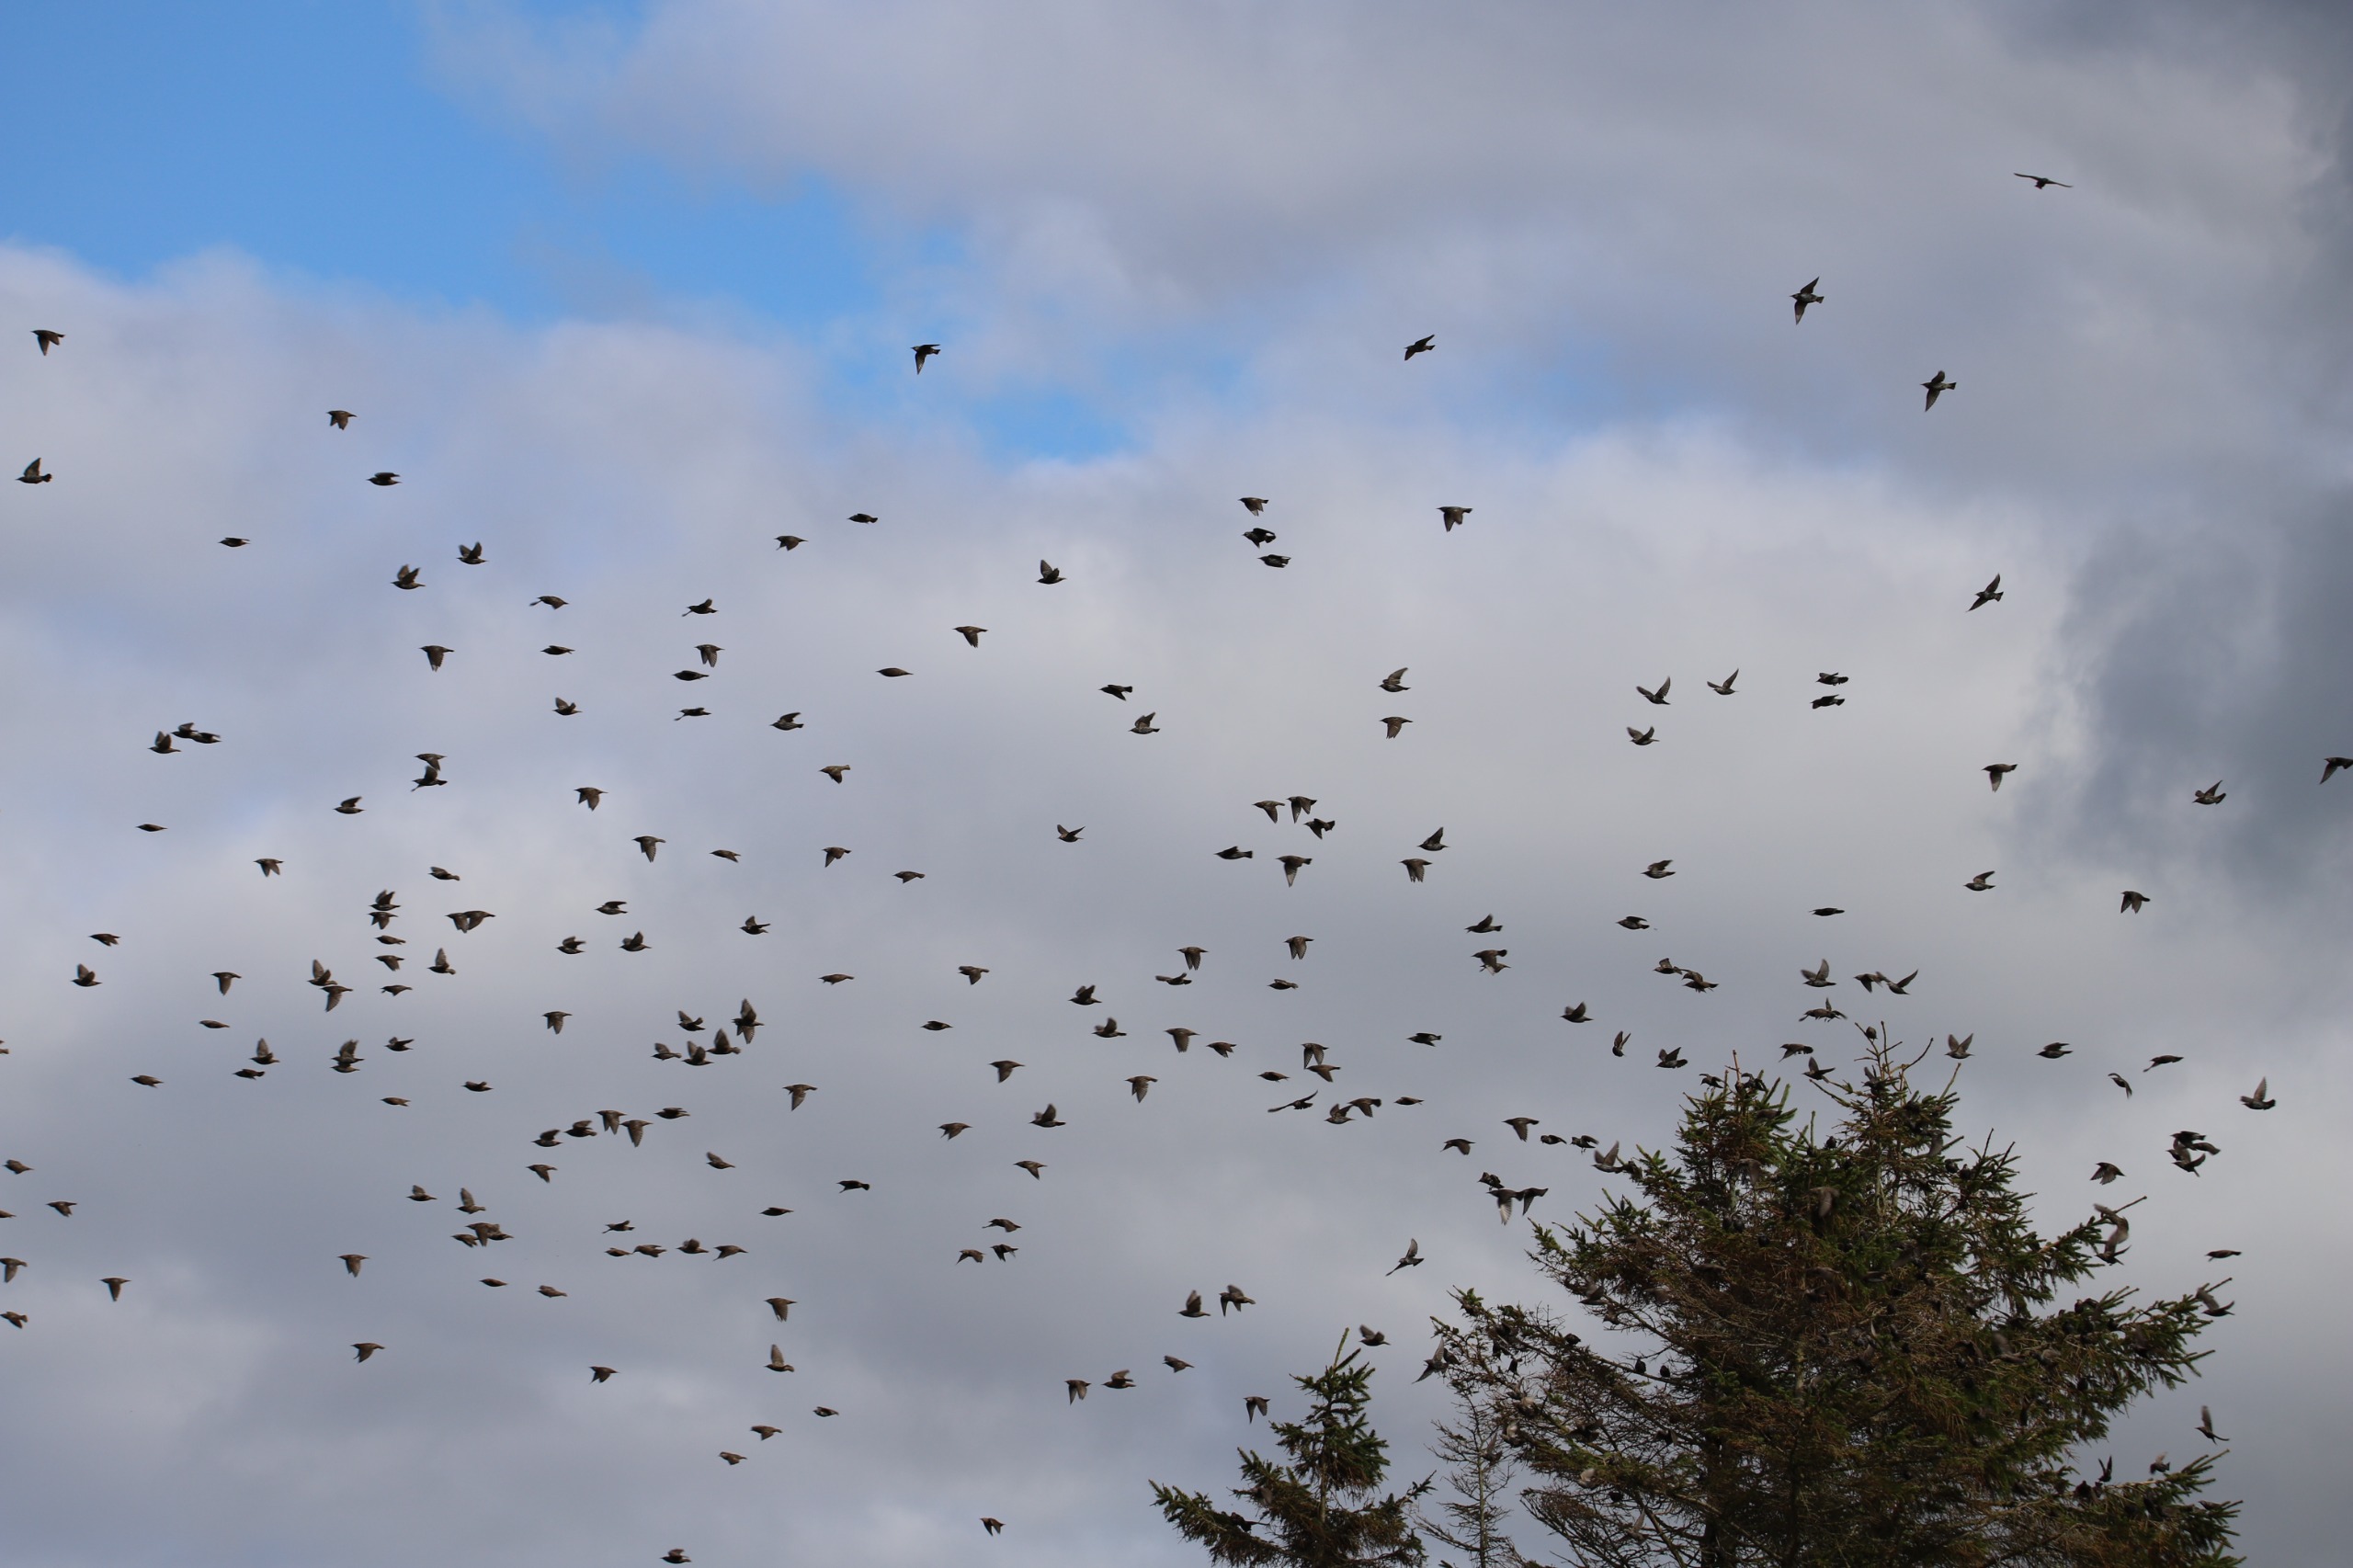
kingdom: Animalia
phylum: Chordata
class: Aves
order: Passeriformes
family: Sturnidae
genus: Sturnus
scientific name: Sturnus vulgaris
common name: Stær
